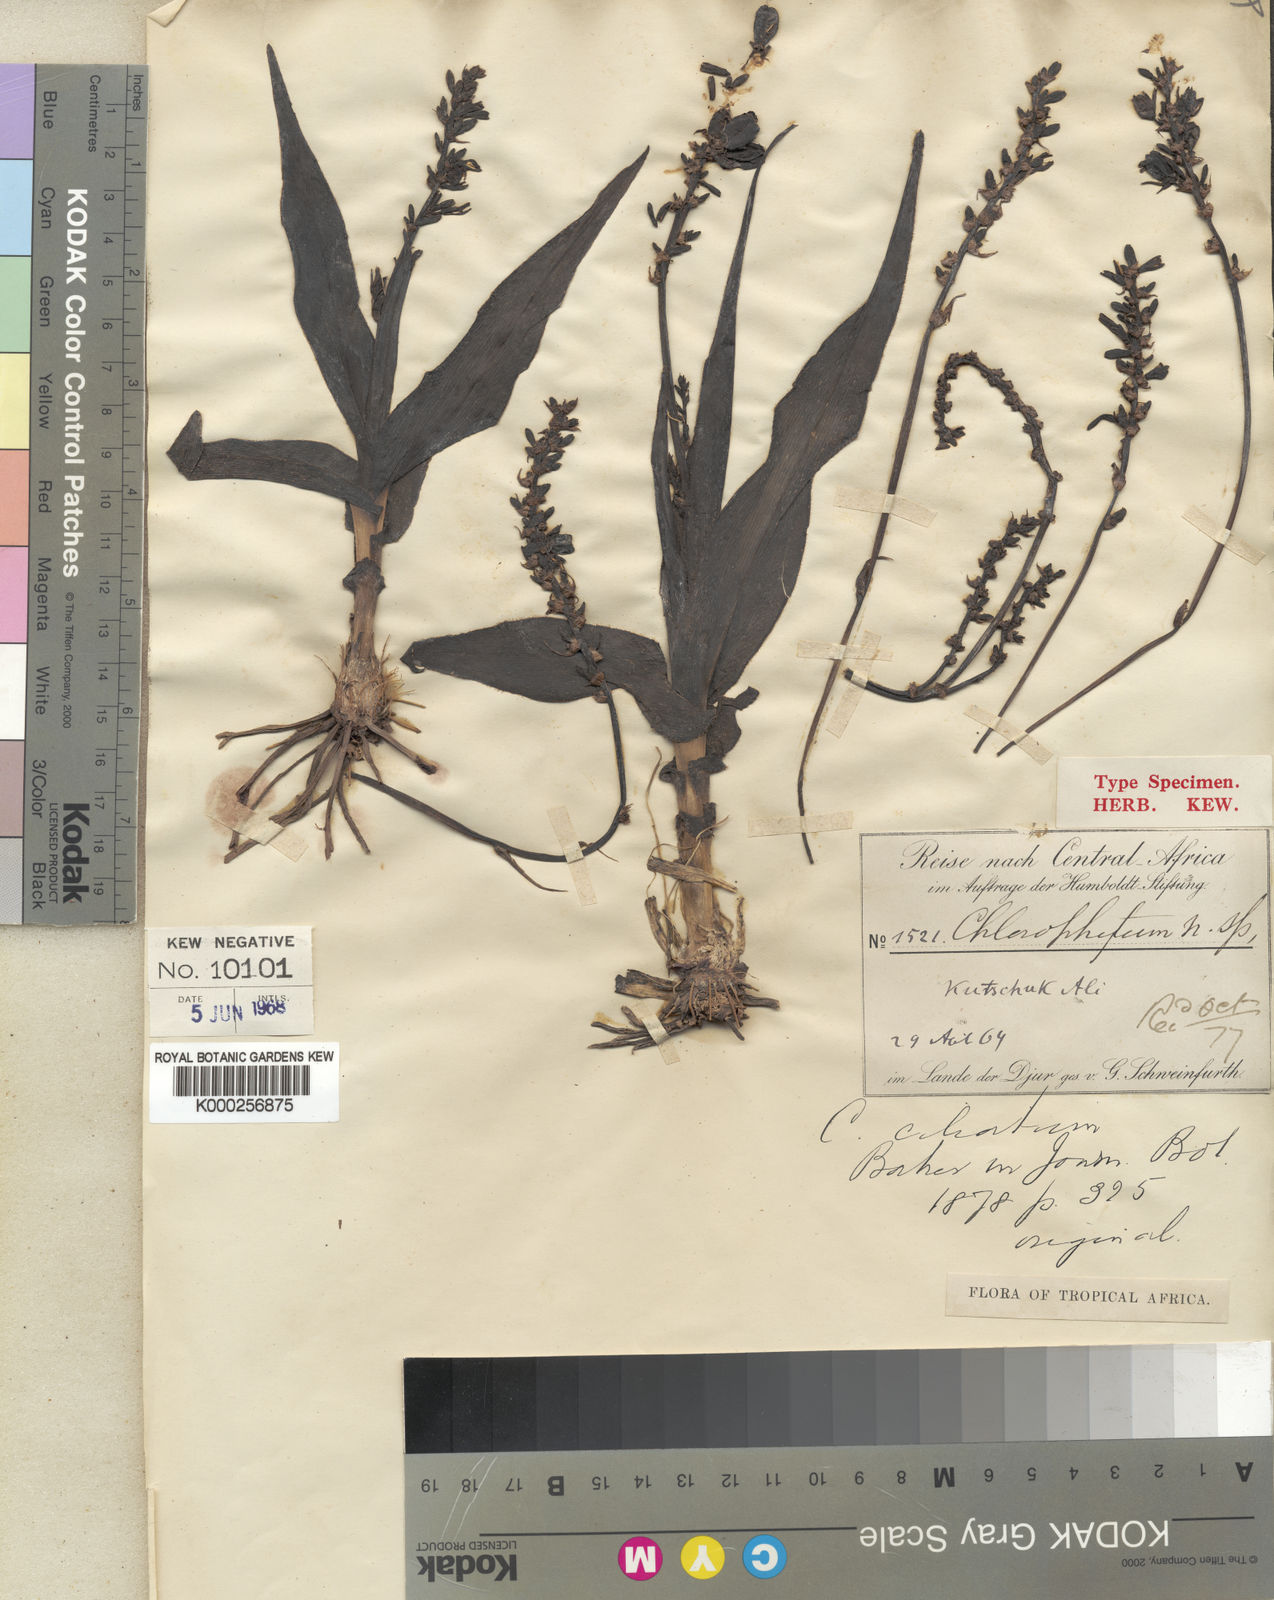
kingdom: Plantae
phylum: Tracheophyta
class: Liliopsida
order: Asparagales
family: Asparagaceae
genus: Chlorophytum
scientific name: Chlorophytum blepharophyllum
